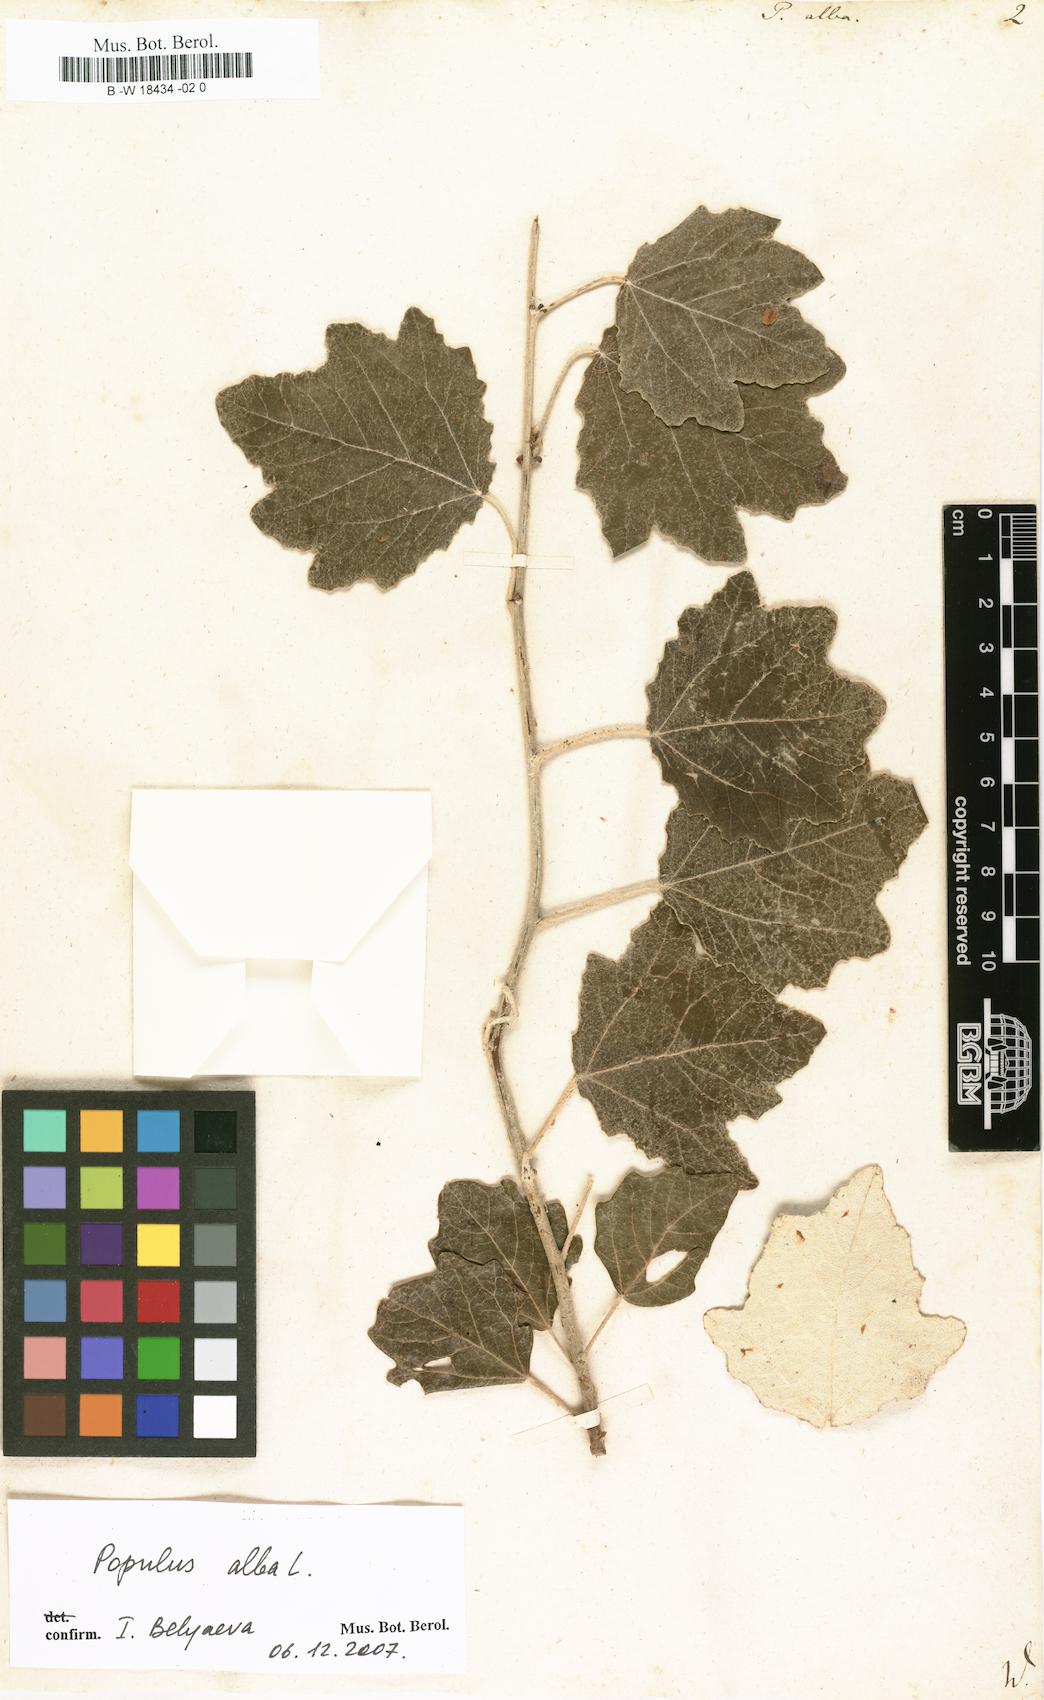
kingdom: Plantae
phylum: Tracheophyta
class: Magnoliopsida
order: Malpighiales
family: Salicaceae
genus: Populus
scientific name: Populus alba
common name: White poplar
